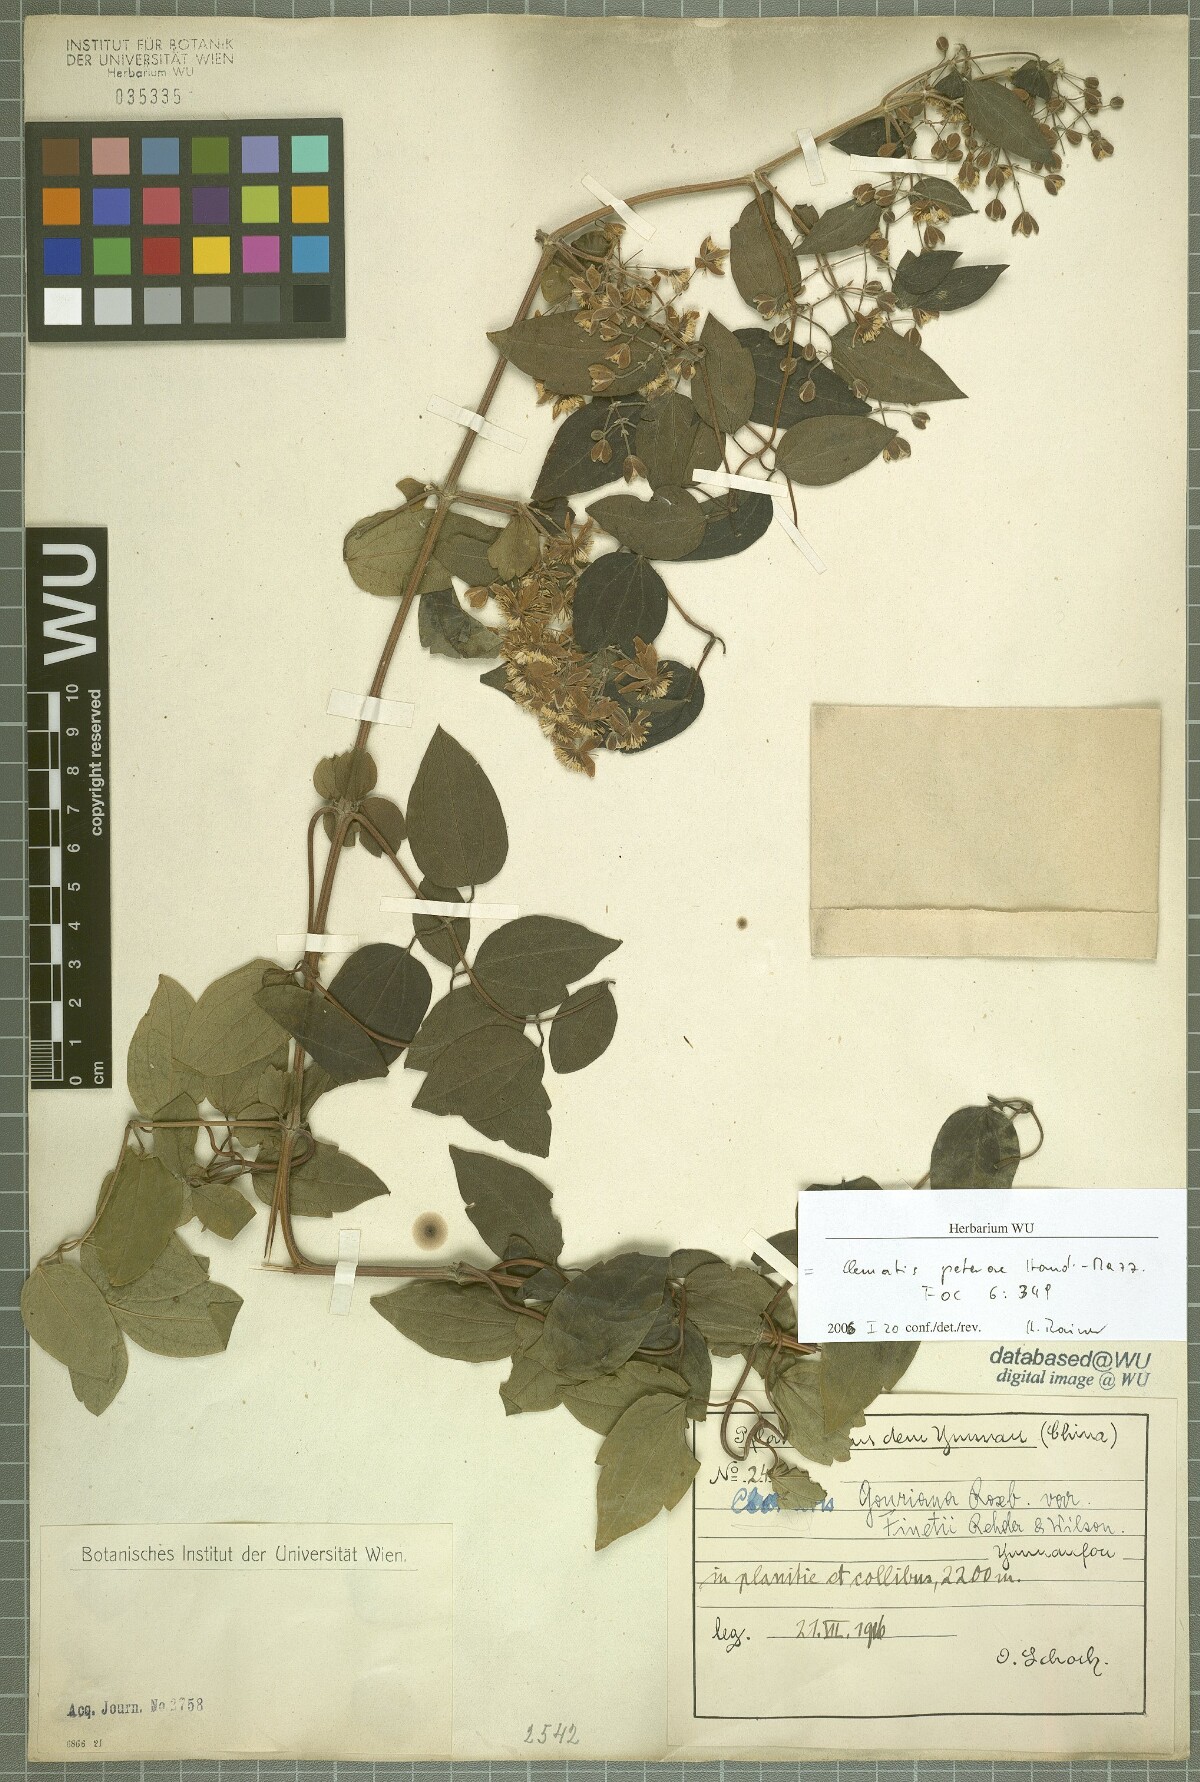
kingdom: Plantae
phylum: Tracheophyta
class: Magnoliopsida
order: Ranunculales
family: Ranunculaceae
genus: Clematis
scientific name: Clematis peterae
